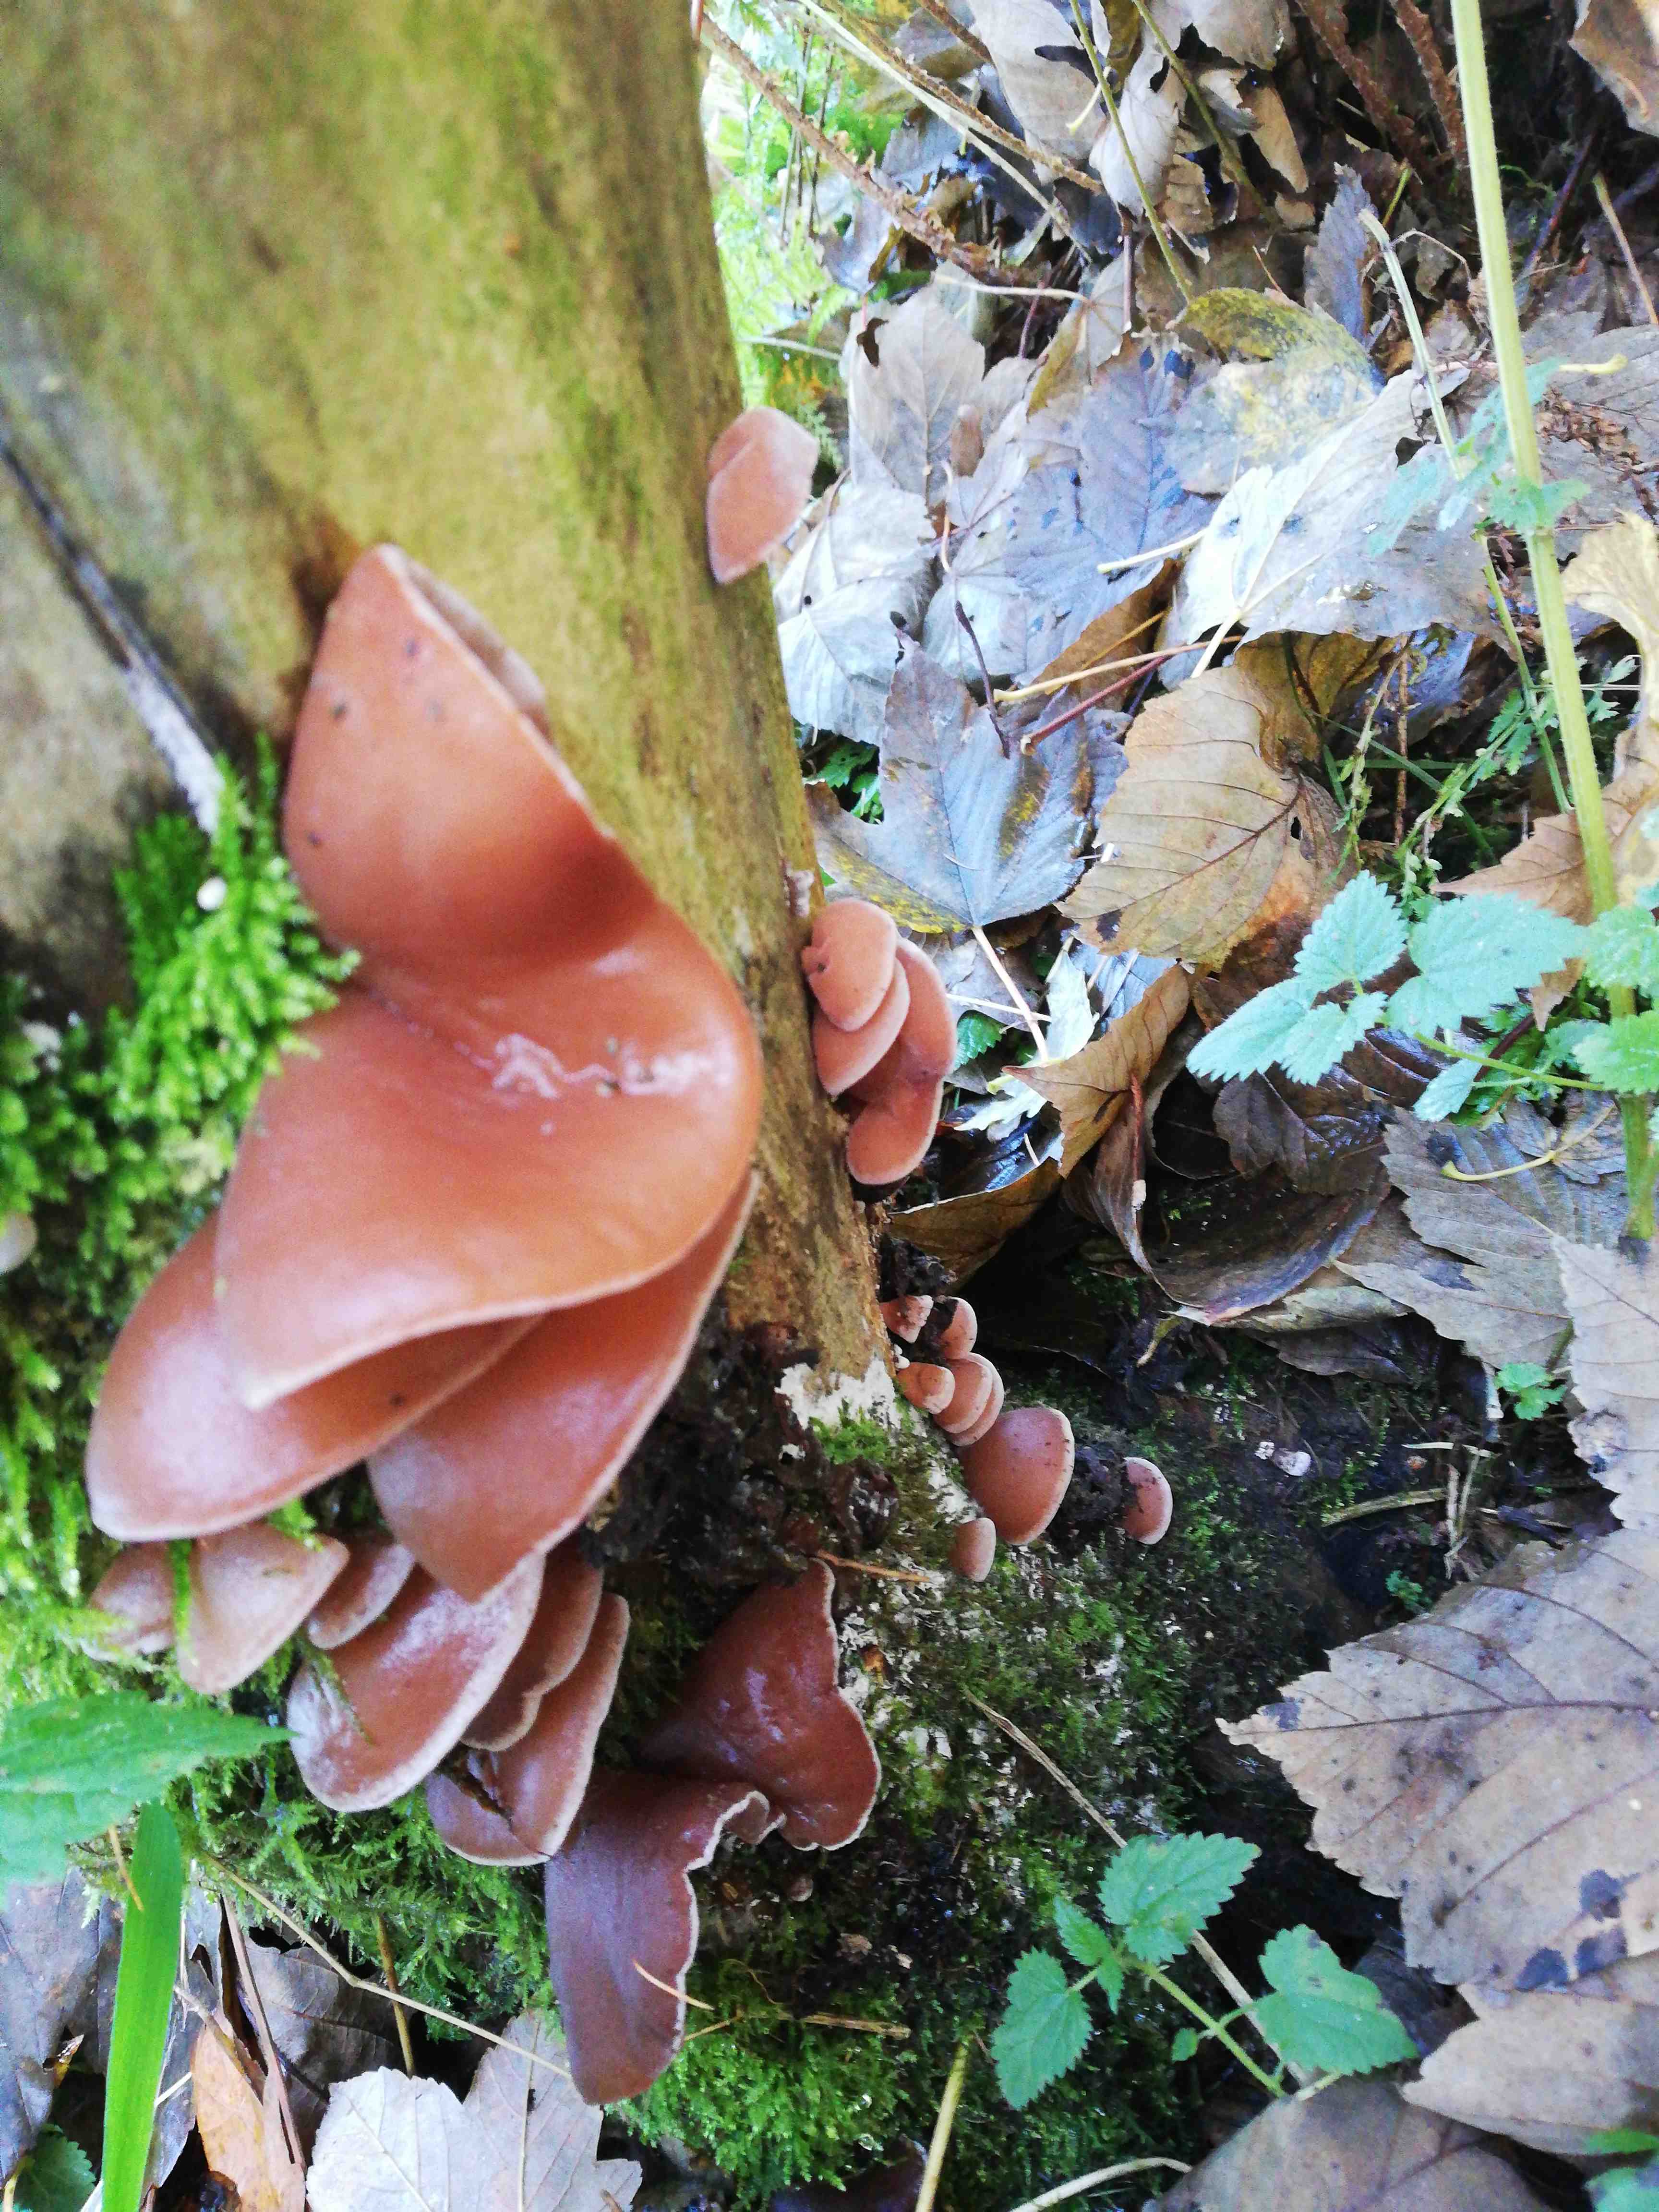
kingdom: Fungi
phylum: Basidiomycota
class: Agaricomycetes
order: Auriculariales
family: Auriculariaceae
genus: Auricularia
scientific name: Auricularia auricula-judae
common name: almindelig judasøre
